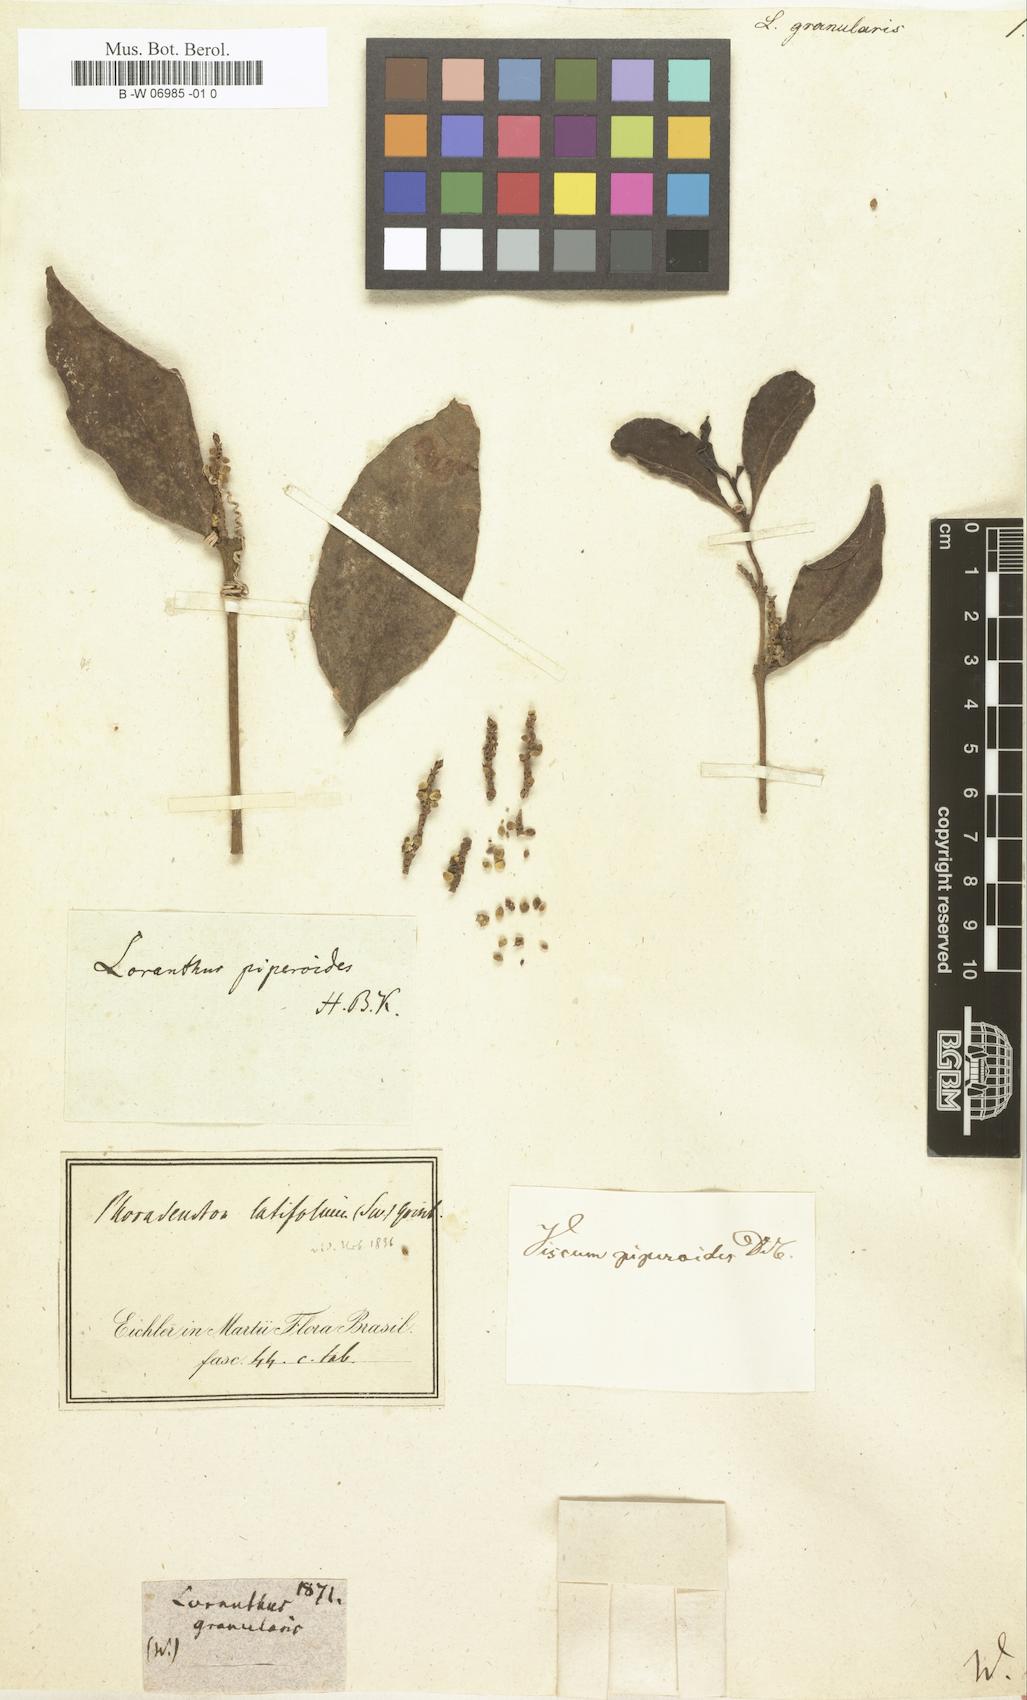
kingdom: Plantae
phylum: Tracheophyta
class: Magnoliopsida
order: Santalales
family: Viscaceae
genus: Phoradendron
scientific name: Phoradendron piperoides
